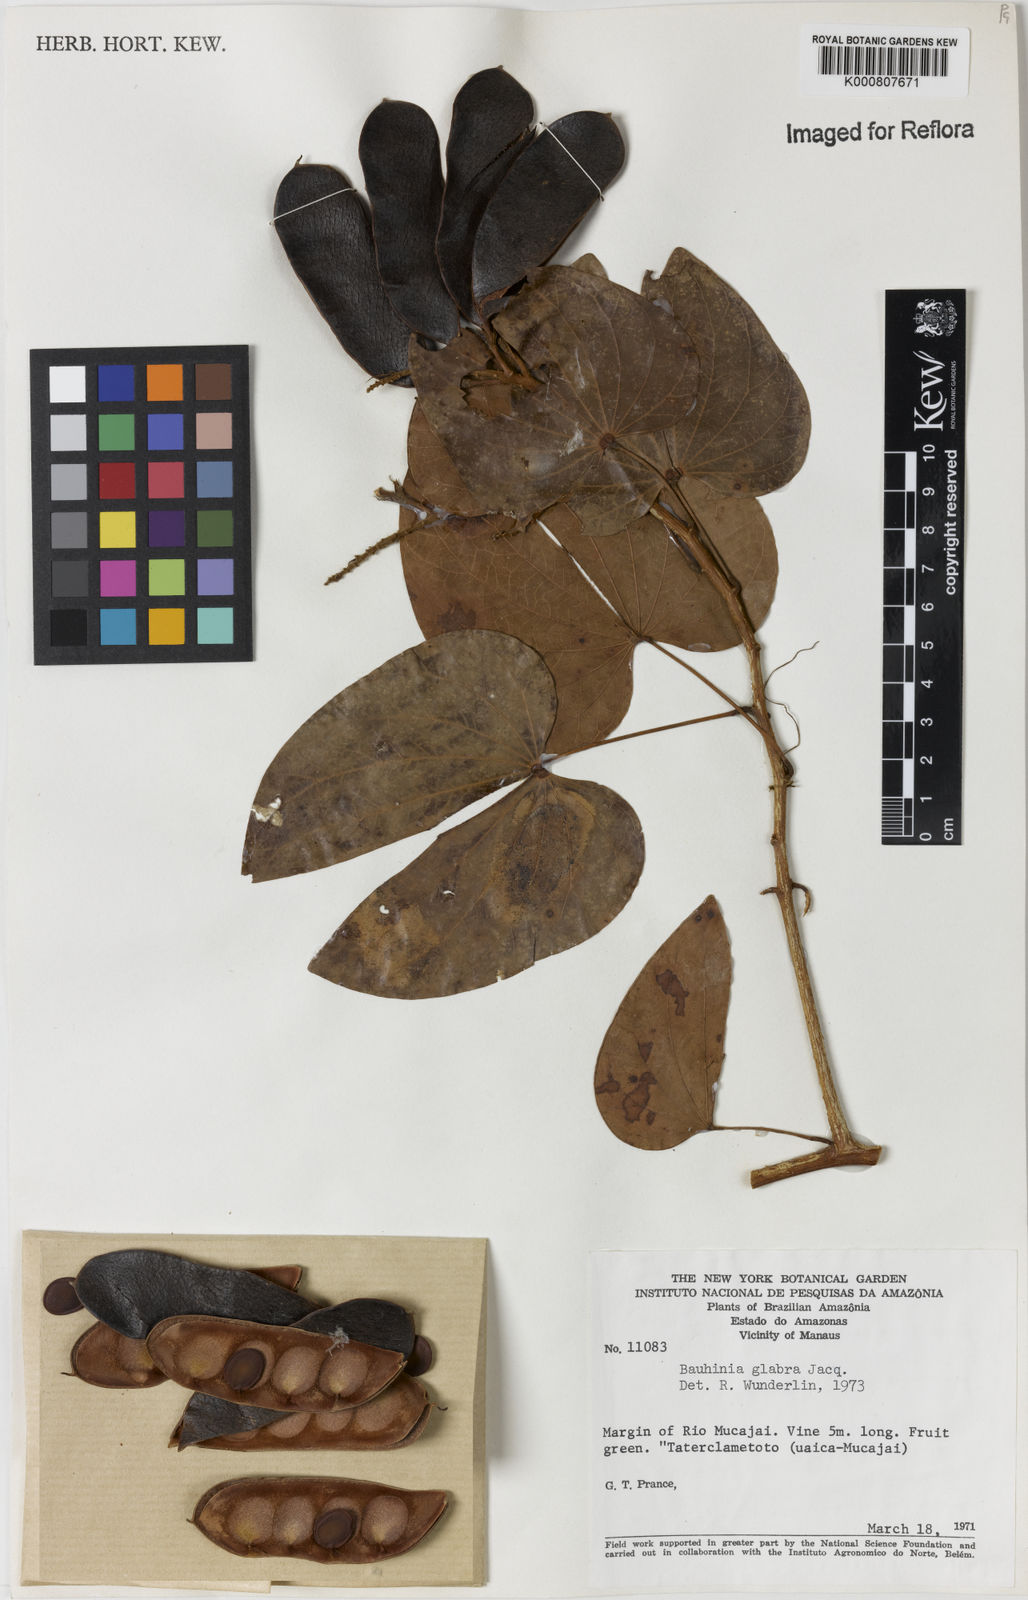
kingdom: Plantae
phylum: Tracheophyta
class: Magnoliopsida
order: Fabales
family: Fabaceae
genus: Schnella
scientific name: Schnella glabra
